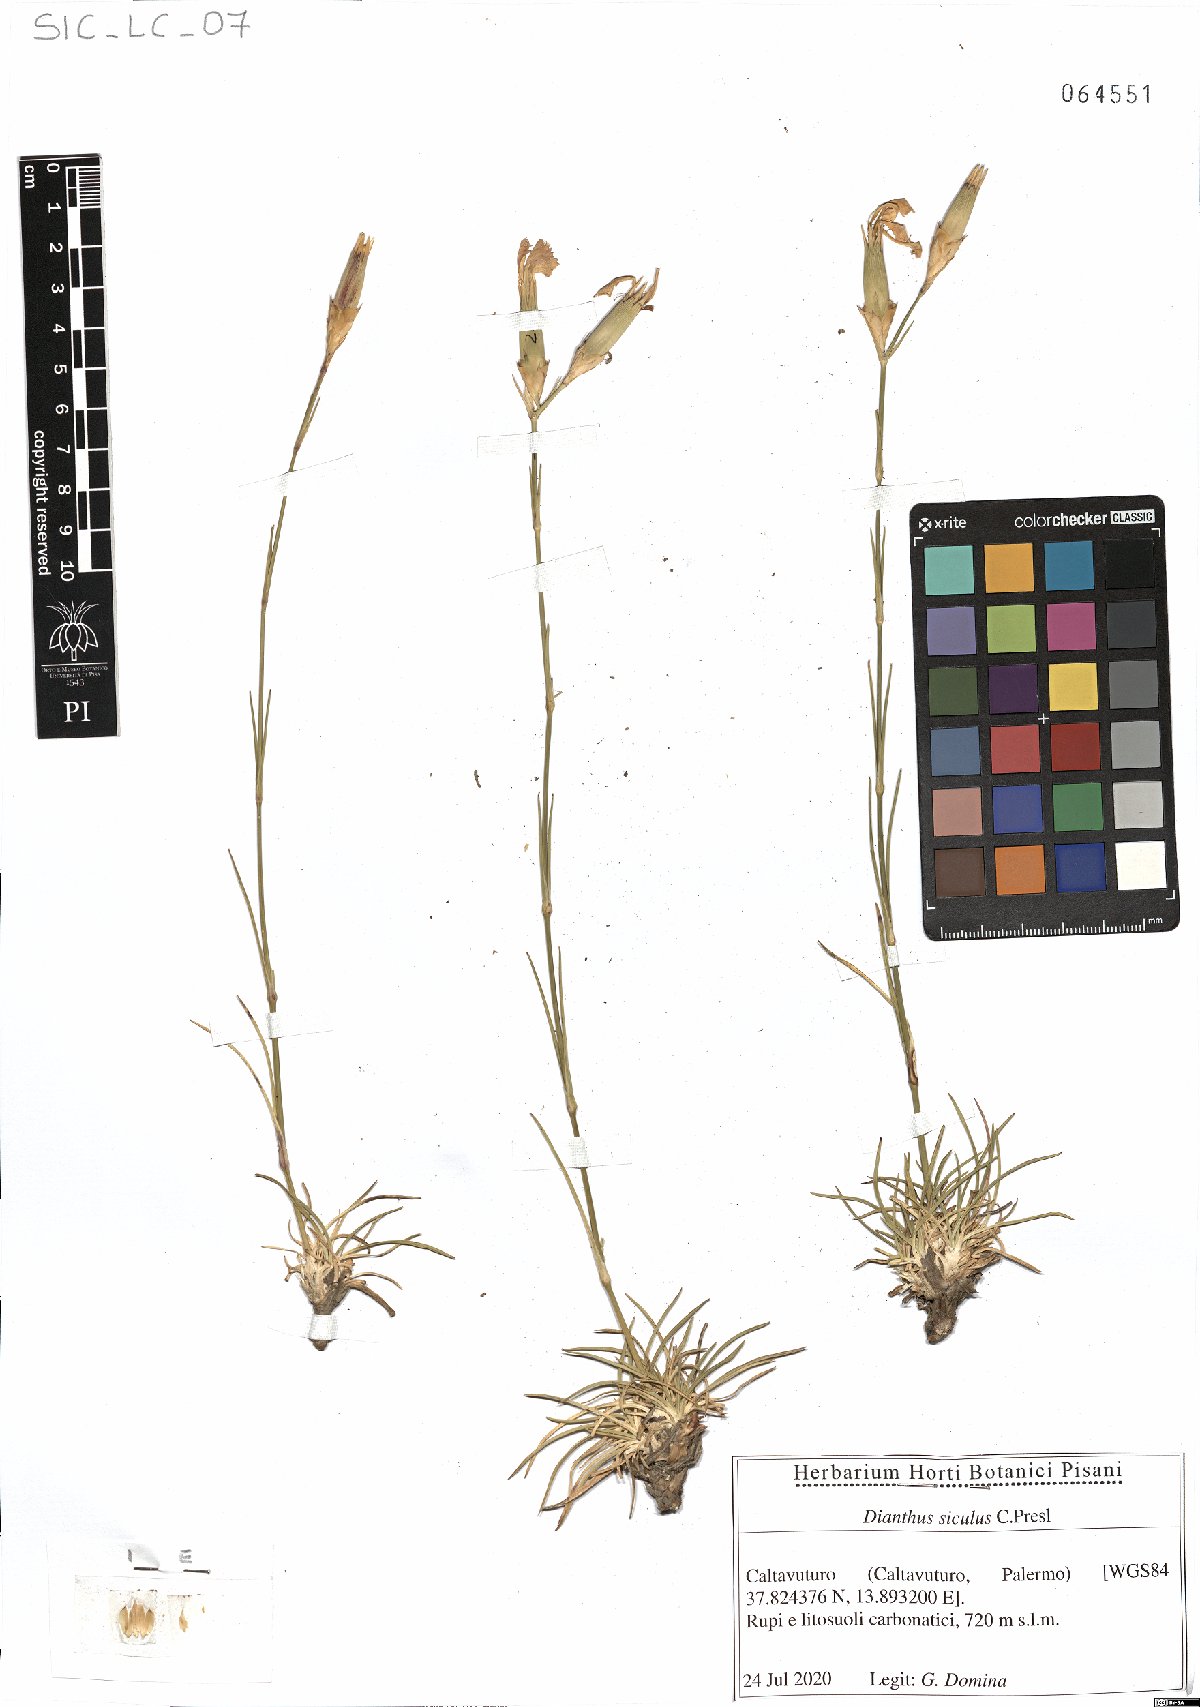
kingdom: Plantae
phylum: Tracheophyta
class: Magnoliopsida
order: Caryophyllales
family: Caryophyllaceae
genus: Dianthus
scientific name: Dianthus siculus
